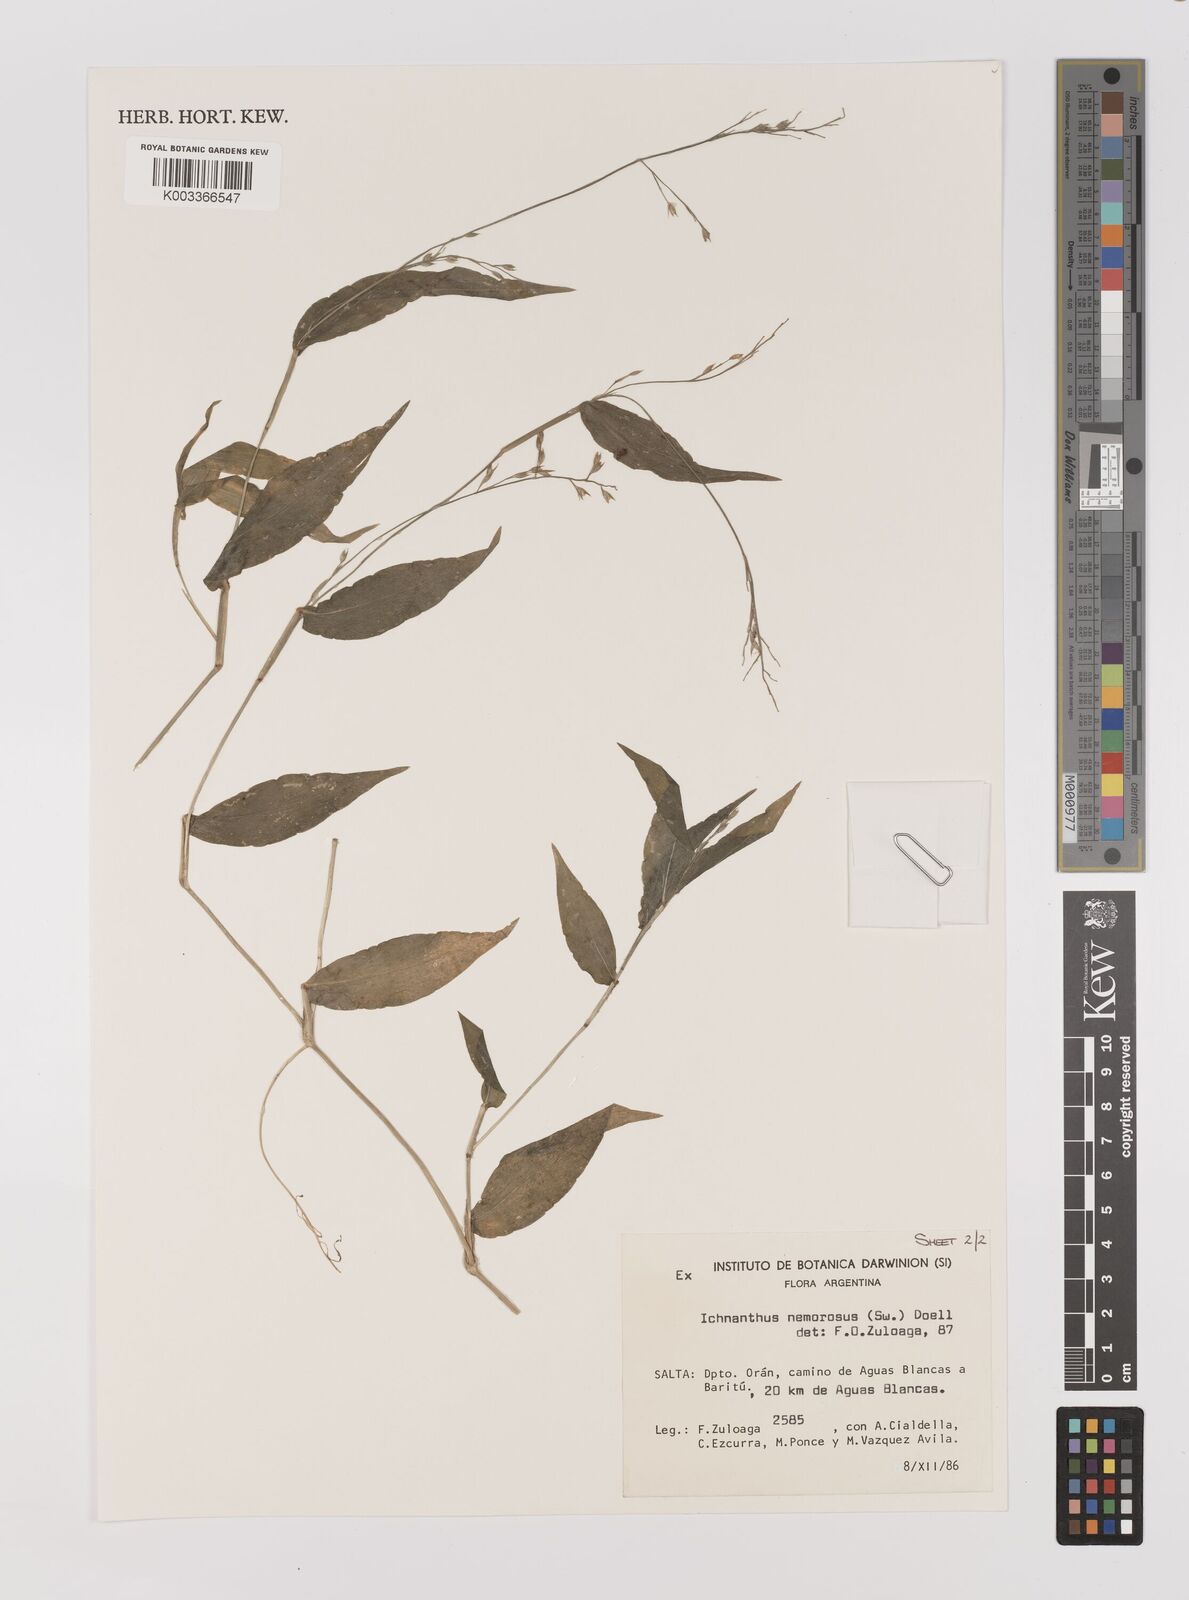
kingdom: Plantae
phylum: Tracheophyta
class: Liliopsida
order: Poales
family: Poaceae
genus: Ichnanthus
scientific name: Ichnanthus nemorosus
